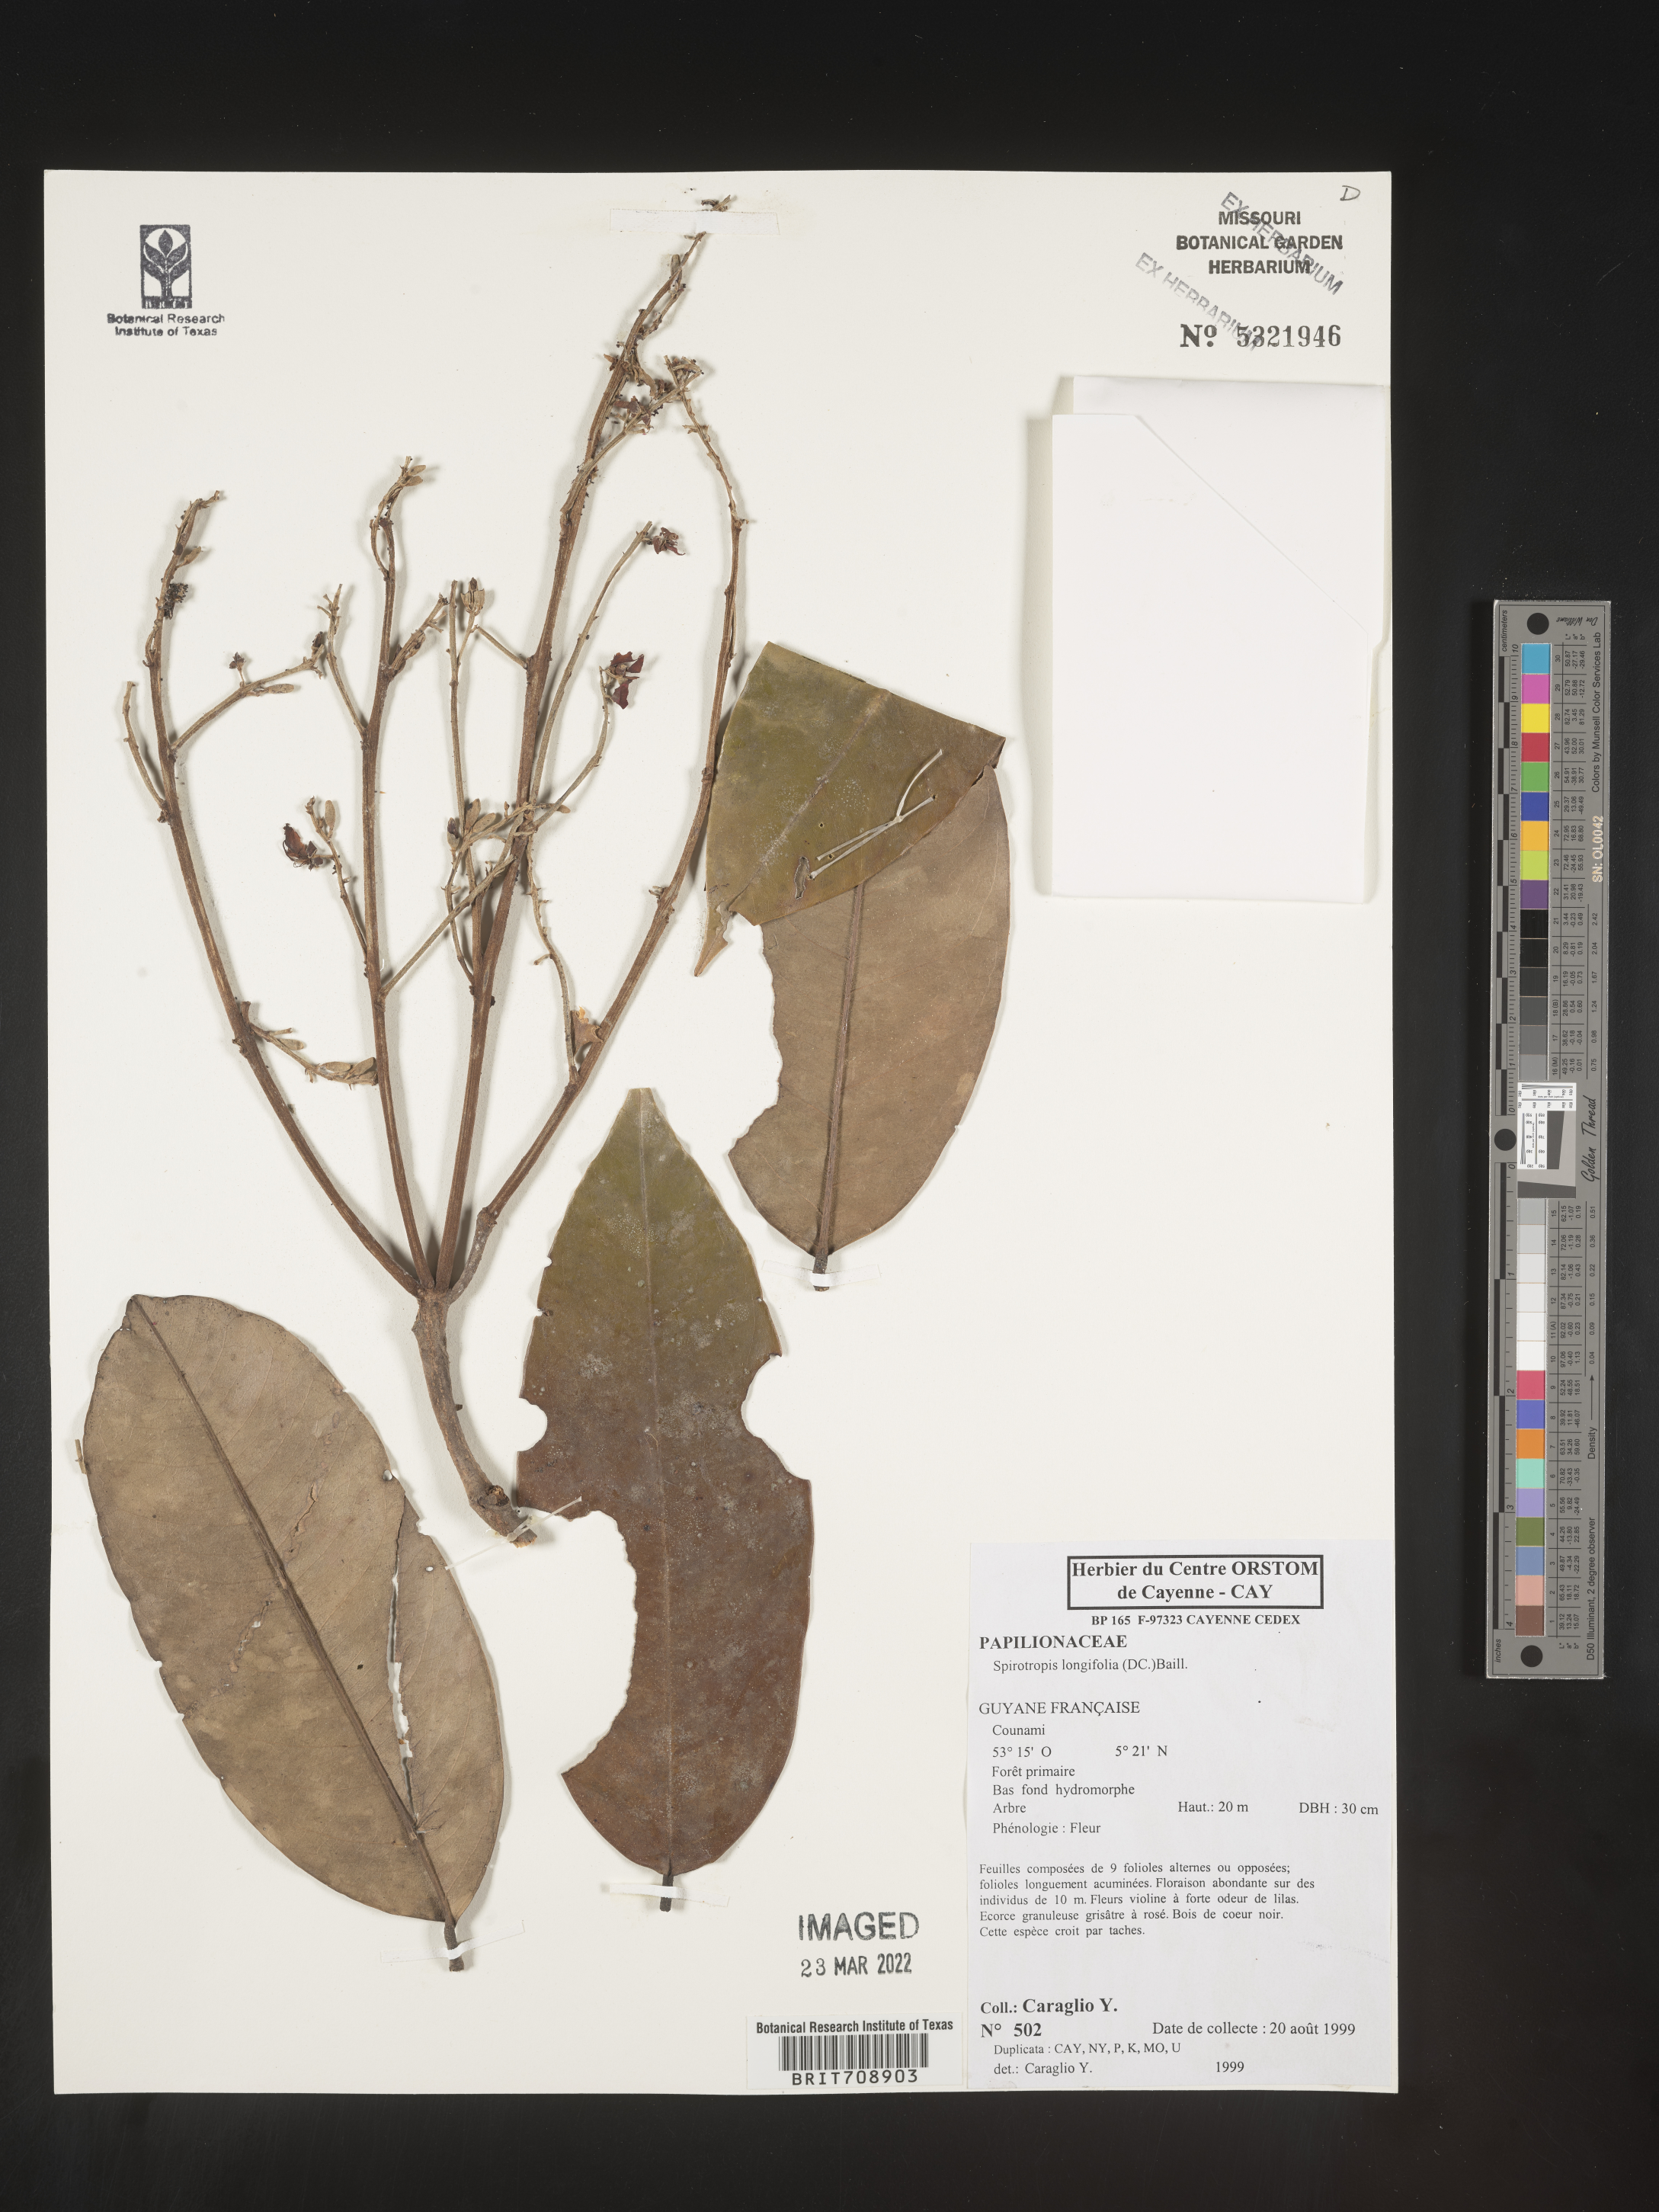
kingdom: Plantae
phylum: Tracheophyta
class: Magnoliopsida
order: Fabales
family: Fabaceae
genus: Spirotropis
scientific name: Spirotropis
